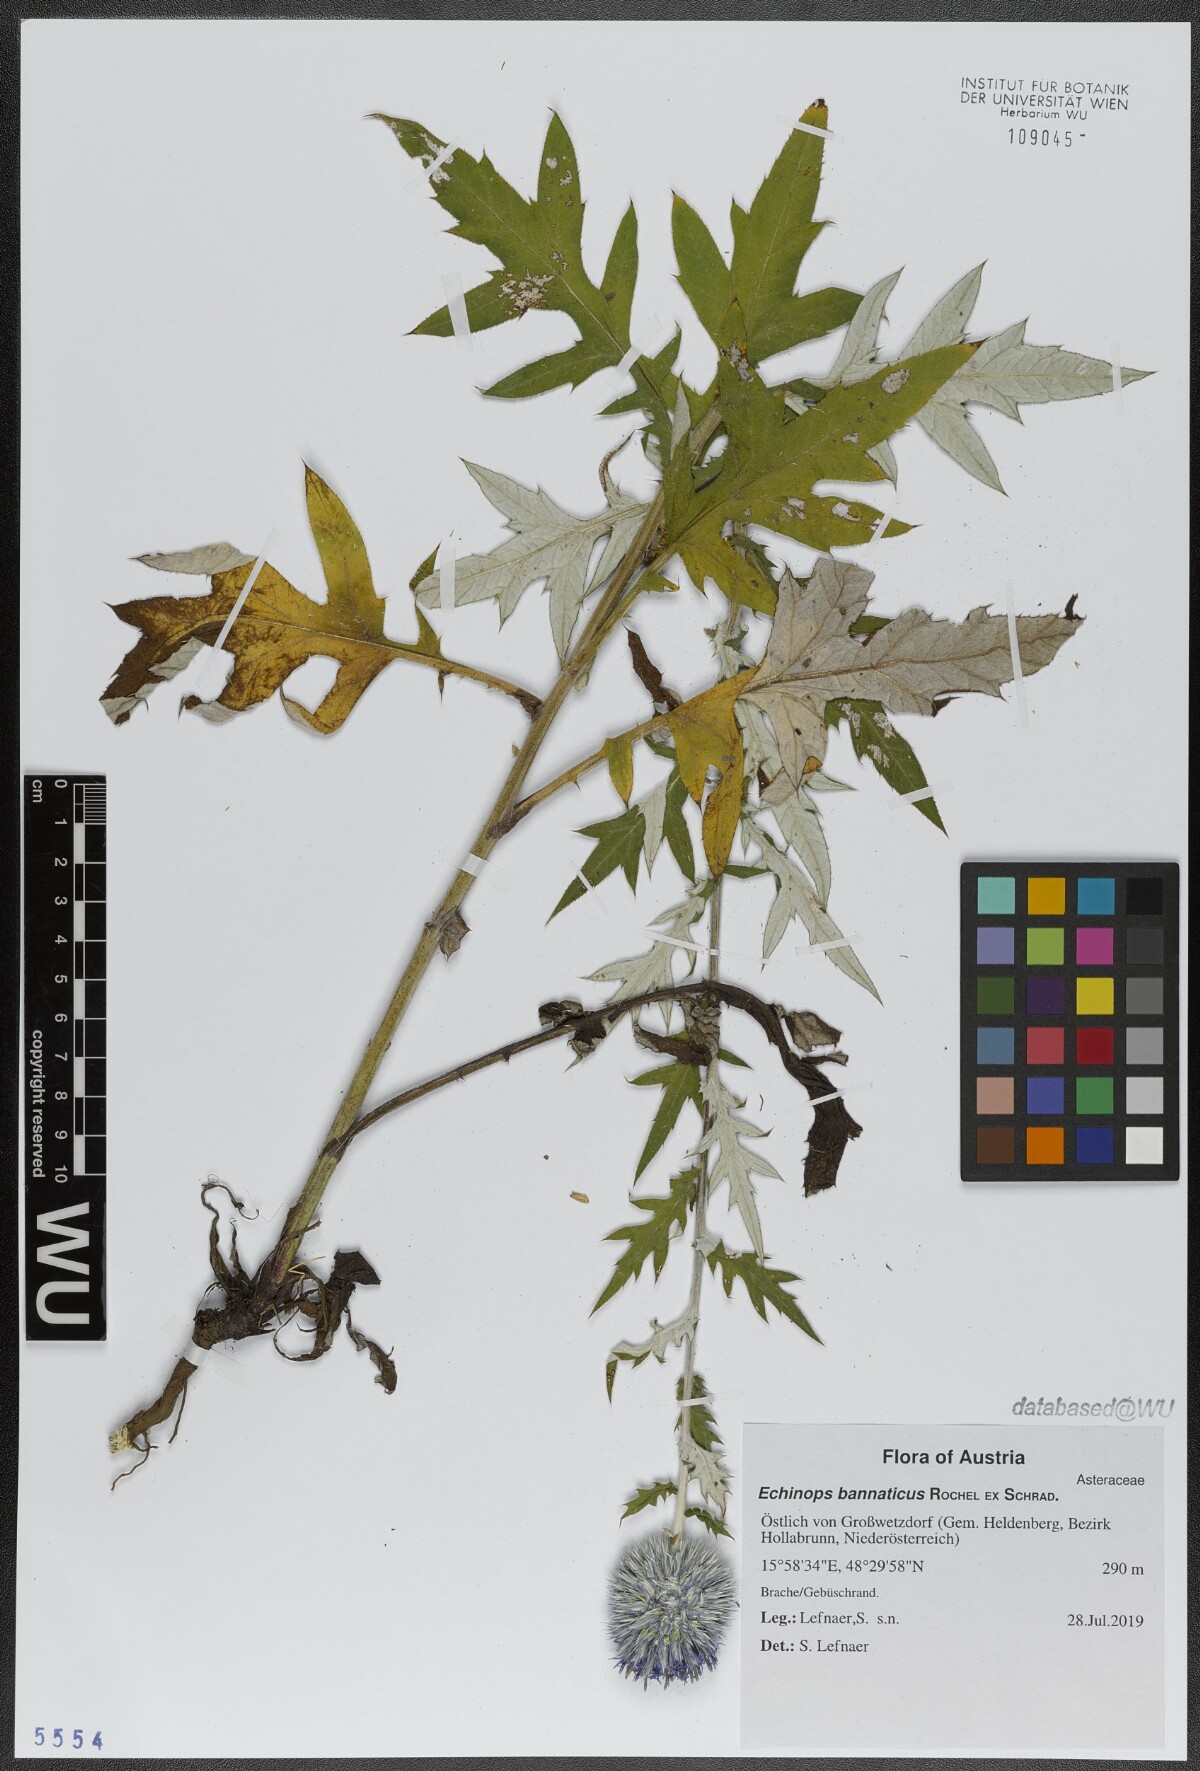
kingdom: Plantae
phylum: Tracheophyta
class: Magnoliopsida
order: Asterales
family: Asteraceae
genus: Echinops
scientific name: Echinops bannaticus
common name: Blue globe-thistle
